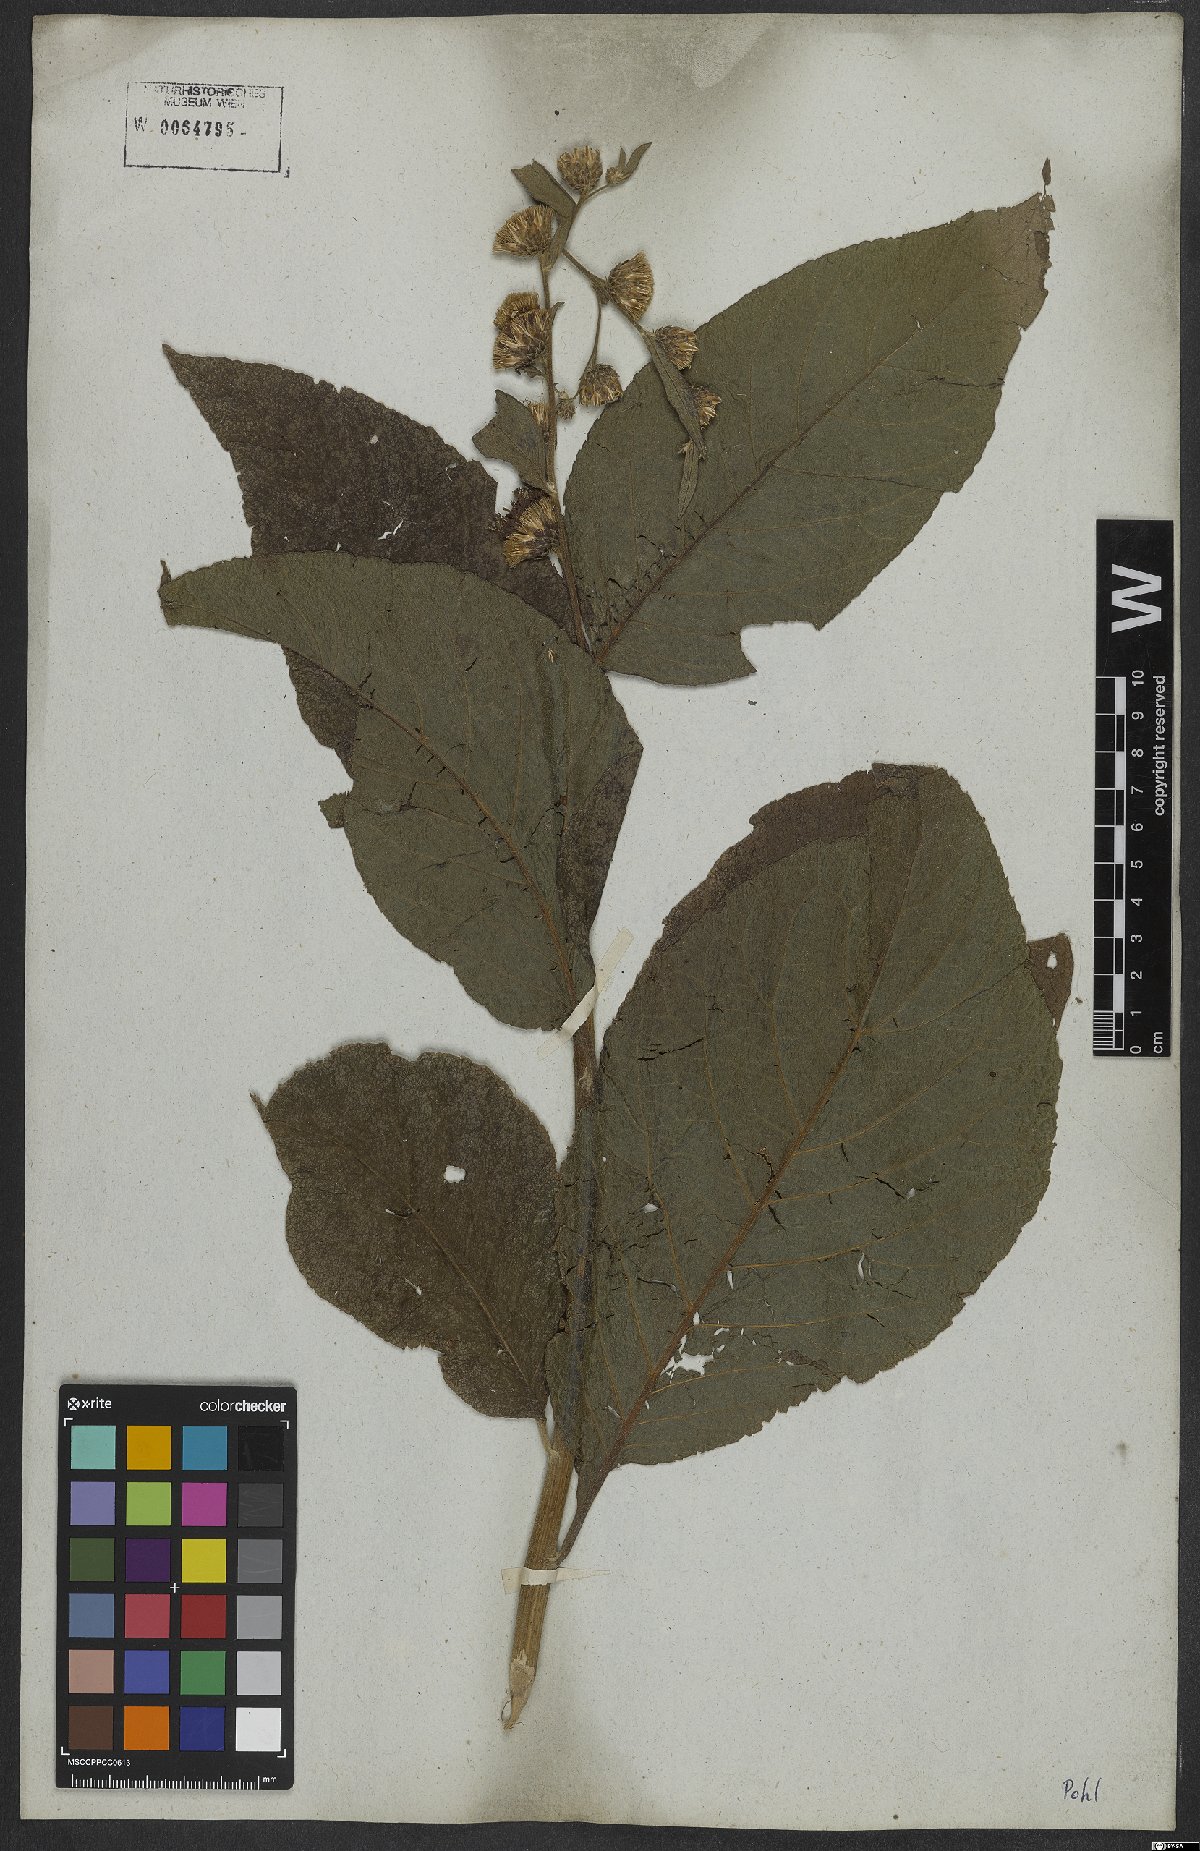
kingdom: Plantae
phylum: Tracheophyta
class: Magnoliopsida
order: Asterales
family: Asteraceae
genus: Gymnanthemum
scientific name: Gymnanthemum theophrastifolium
